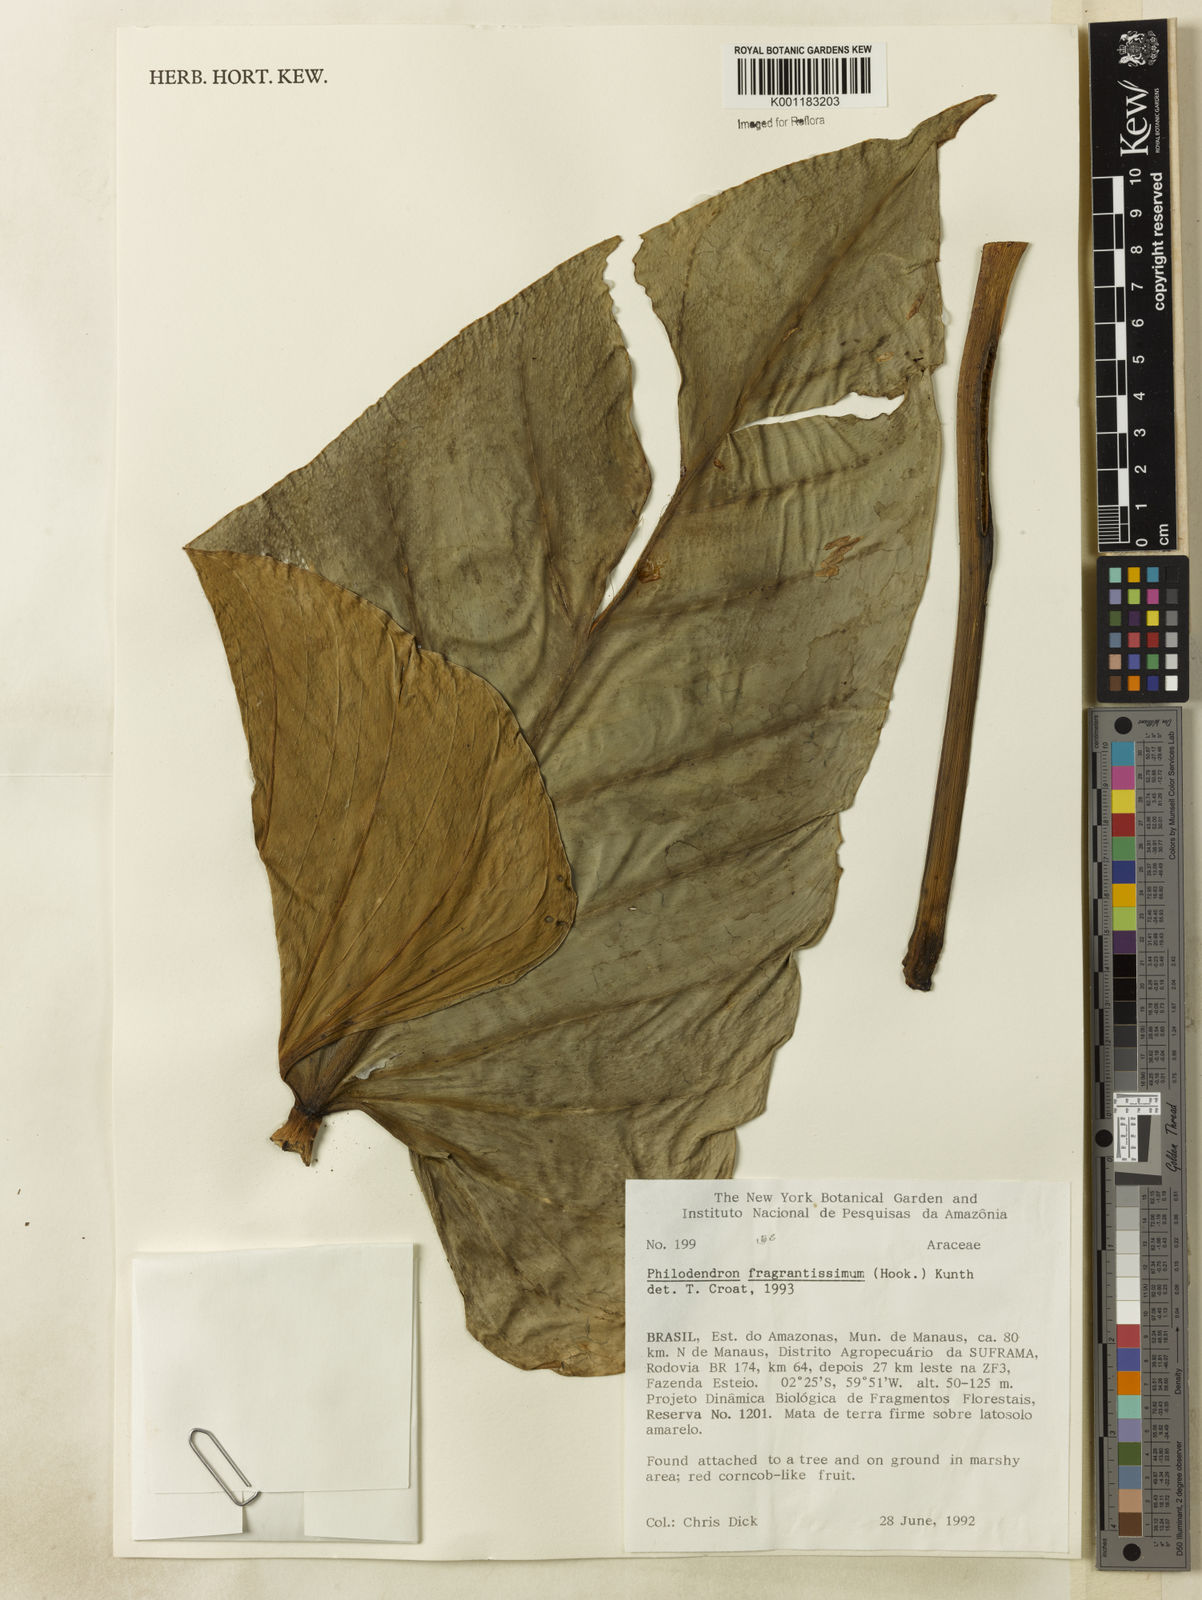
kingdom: Plantae
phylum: Tracheophyta
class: Liliopsida
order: Alismatales
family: Araceae
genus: Philodendron
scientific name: Philodendron
